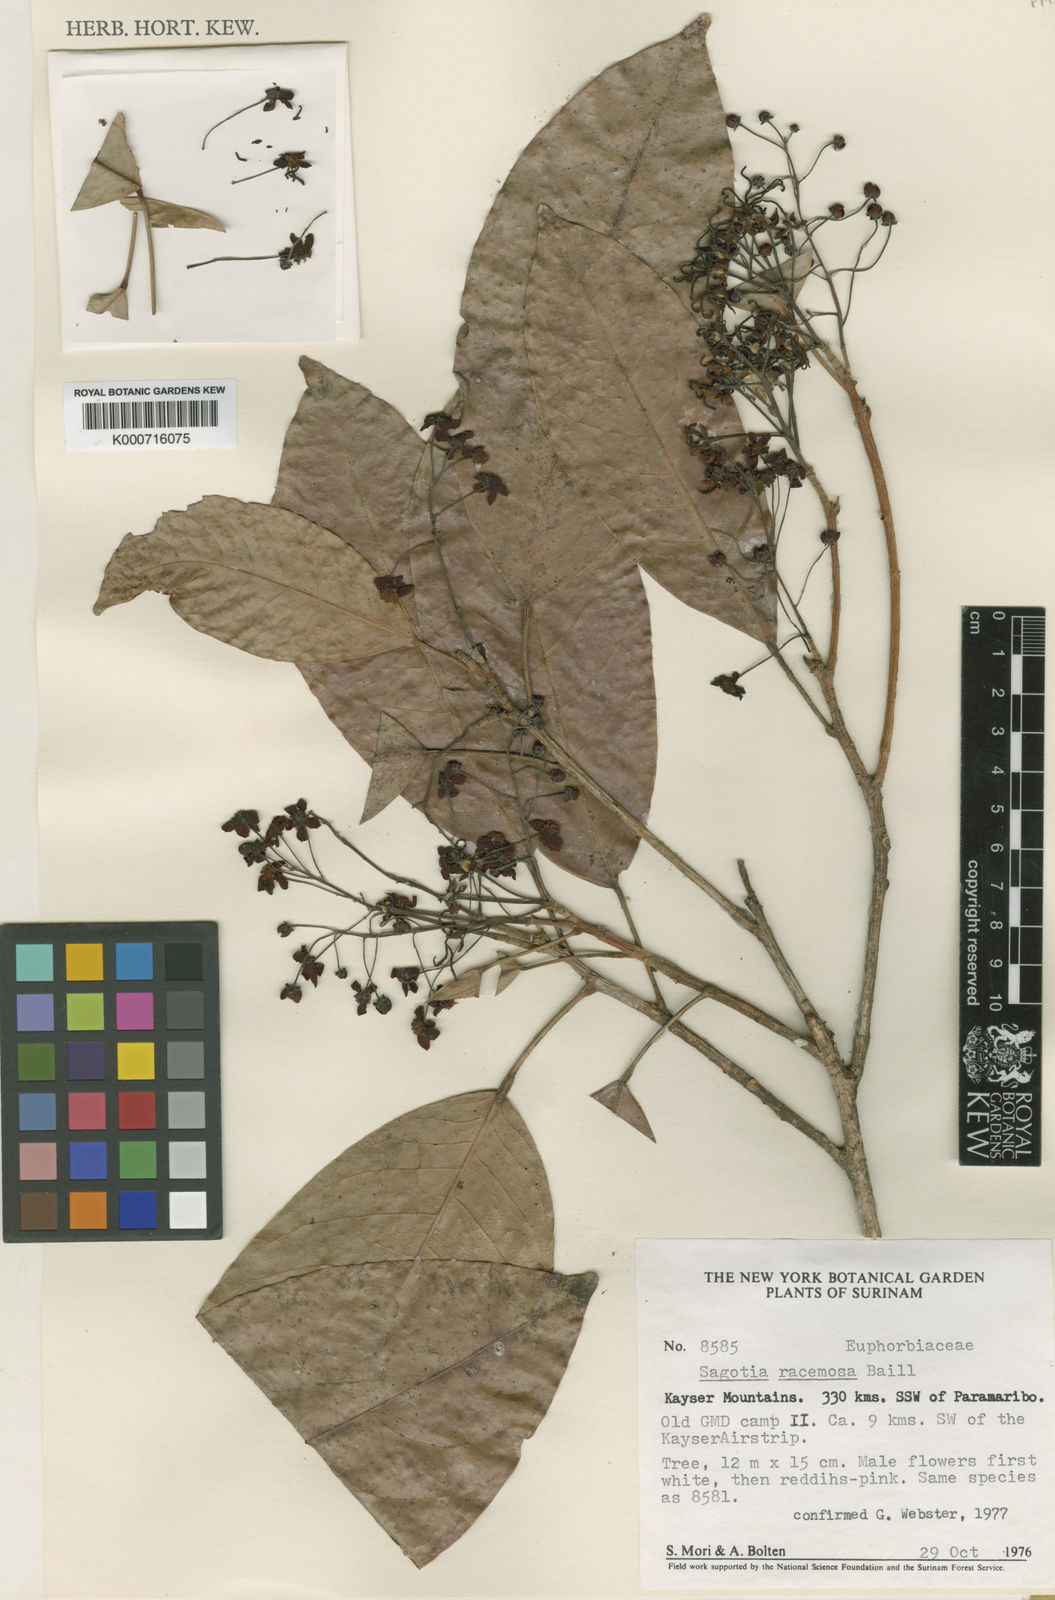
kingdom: Plantae
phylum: Tracheophyta
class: Magnoliopsida
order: Malpighiales
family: Euphorbiaceae
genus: Sagotia
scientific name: Sagotia racemosa
